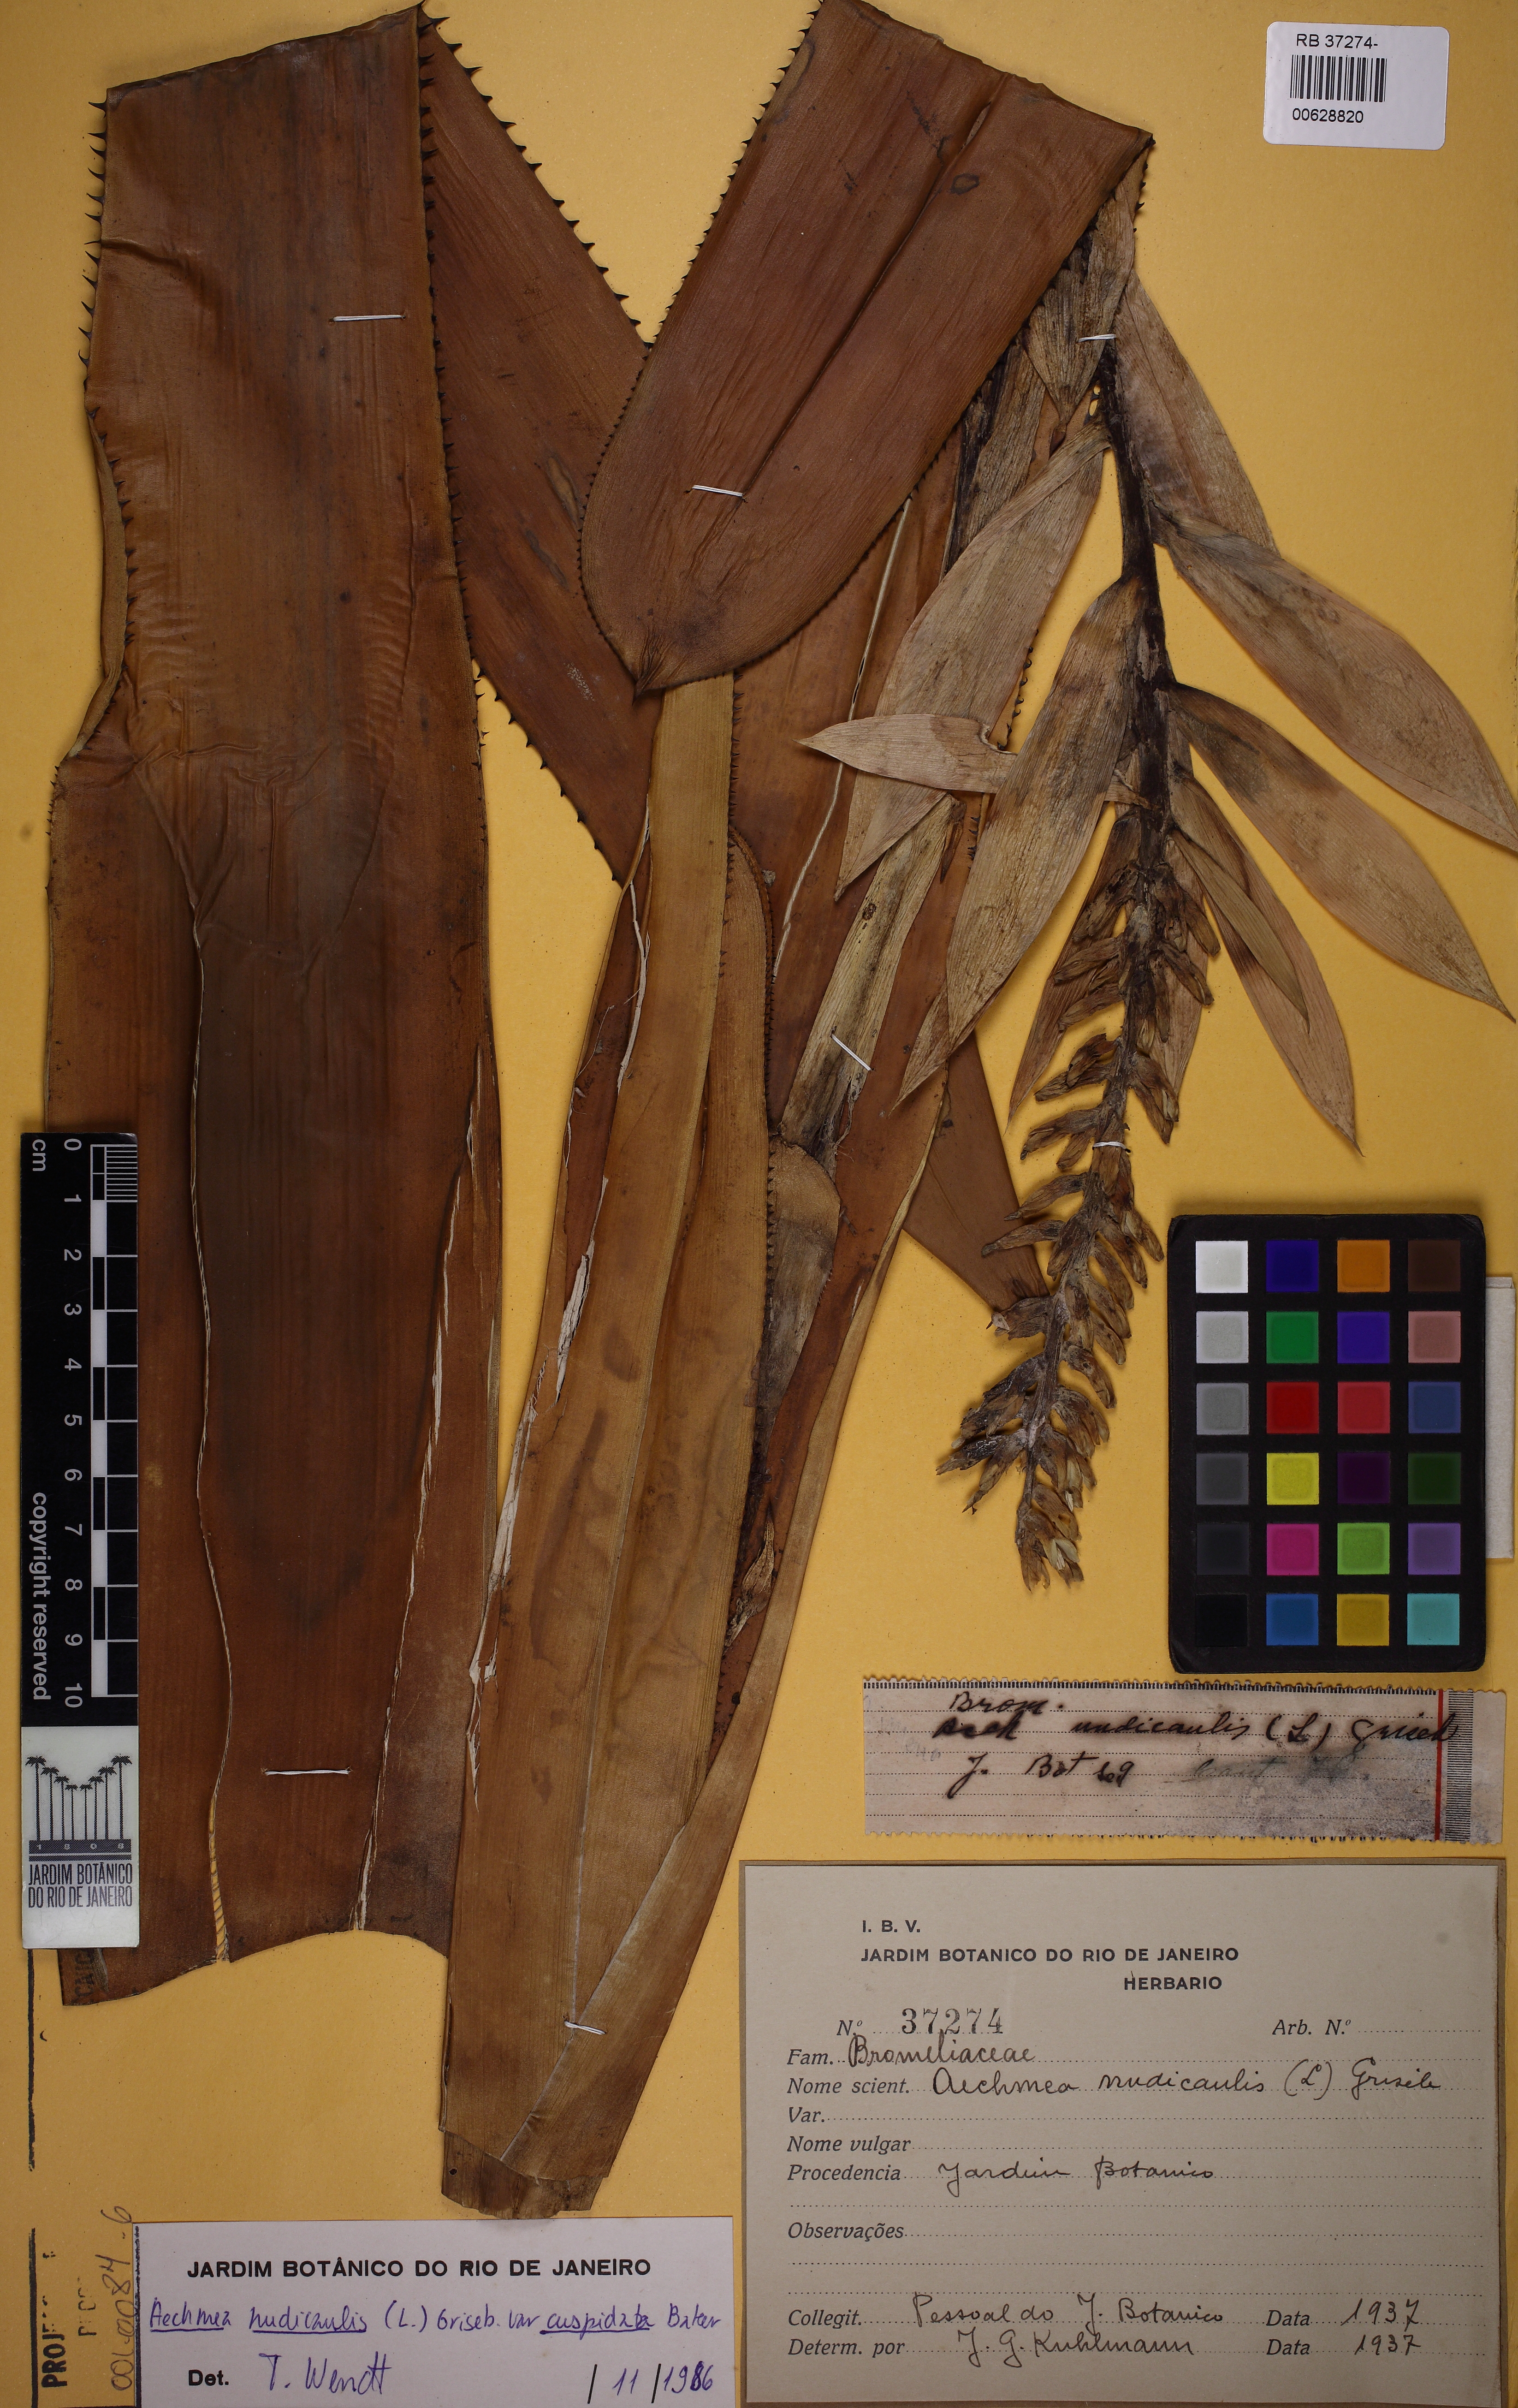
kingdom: Plantae
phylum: Tracheophyta
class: Liliopsida
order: Poales
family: Bromeliaceae
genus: Aechmea
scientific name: Aechmea nudicaulis
